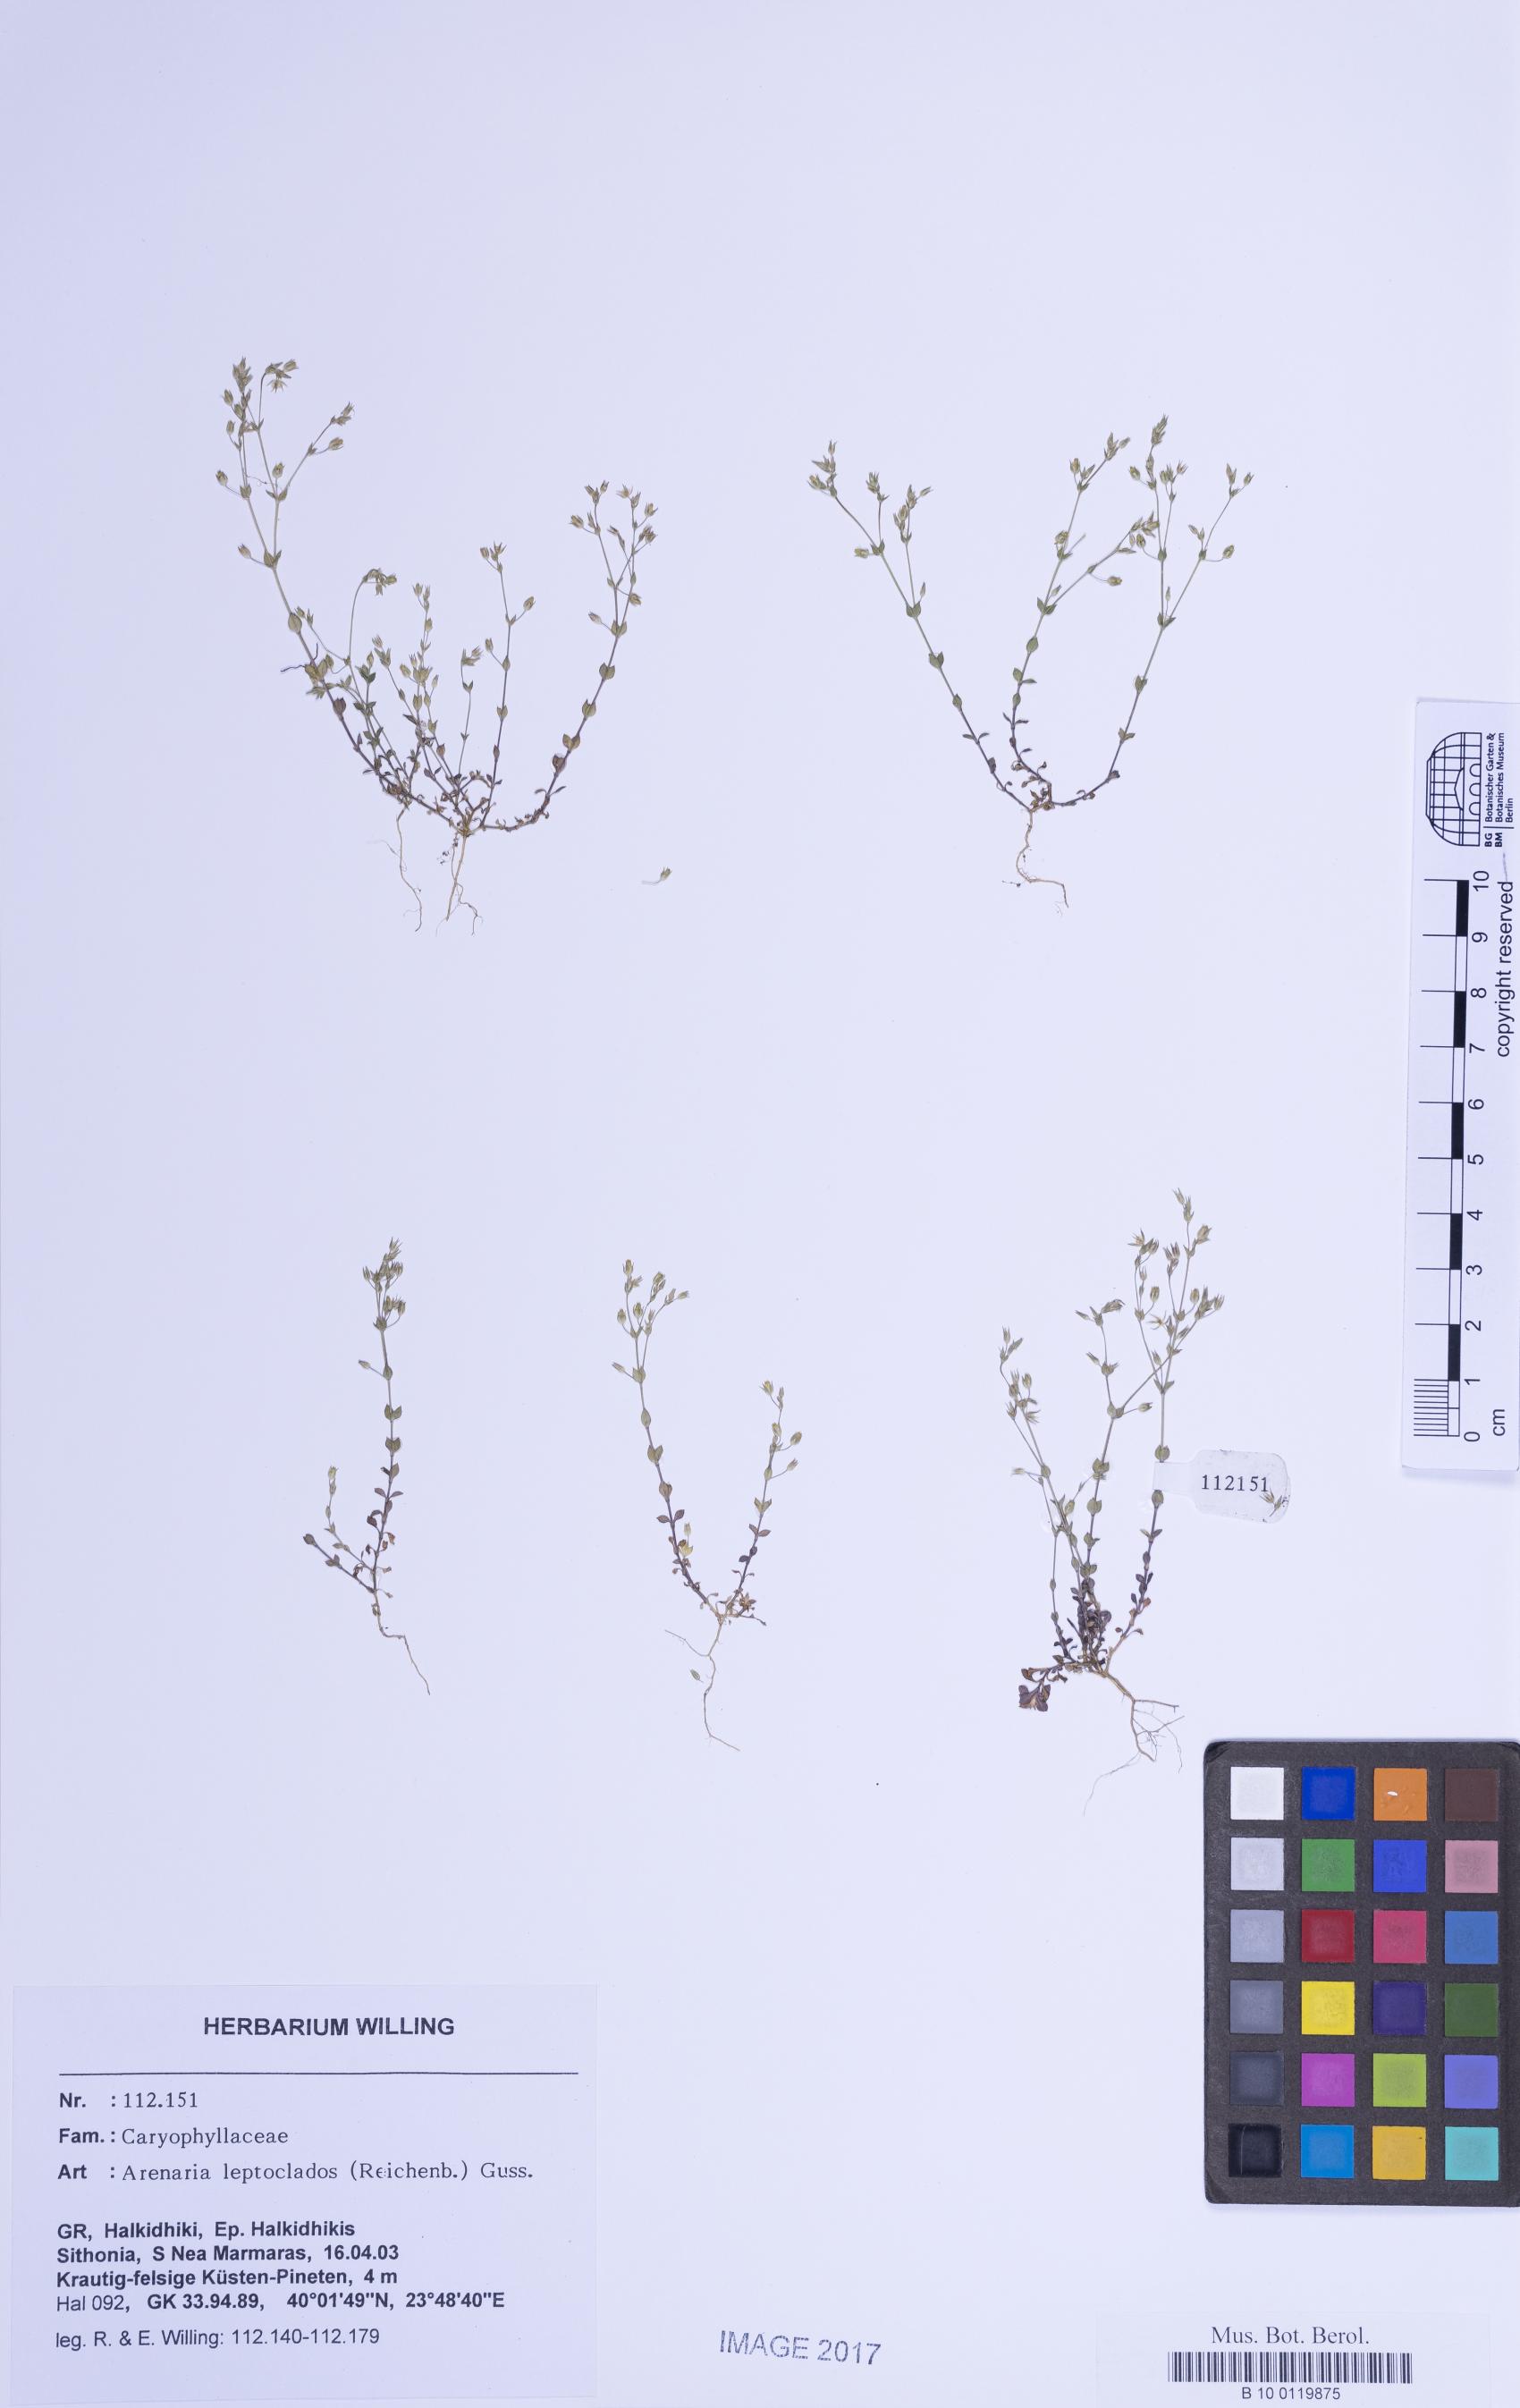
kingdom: Plantae
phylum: Tracheophyta
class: Magnoliopsida
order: Caryophyllales
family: Caryophyllaceae
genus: Arenaria
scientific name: Arenaria leptoclados
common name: Thyme-leaved sandwort
